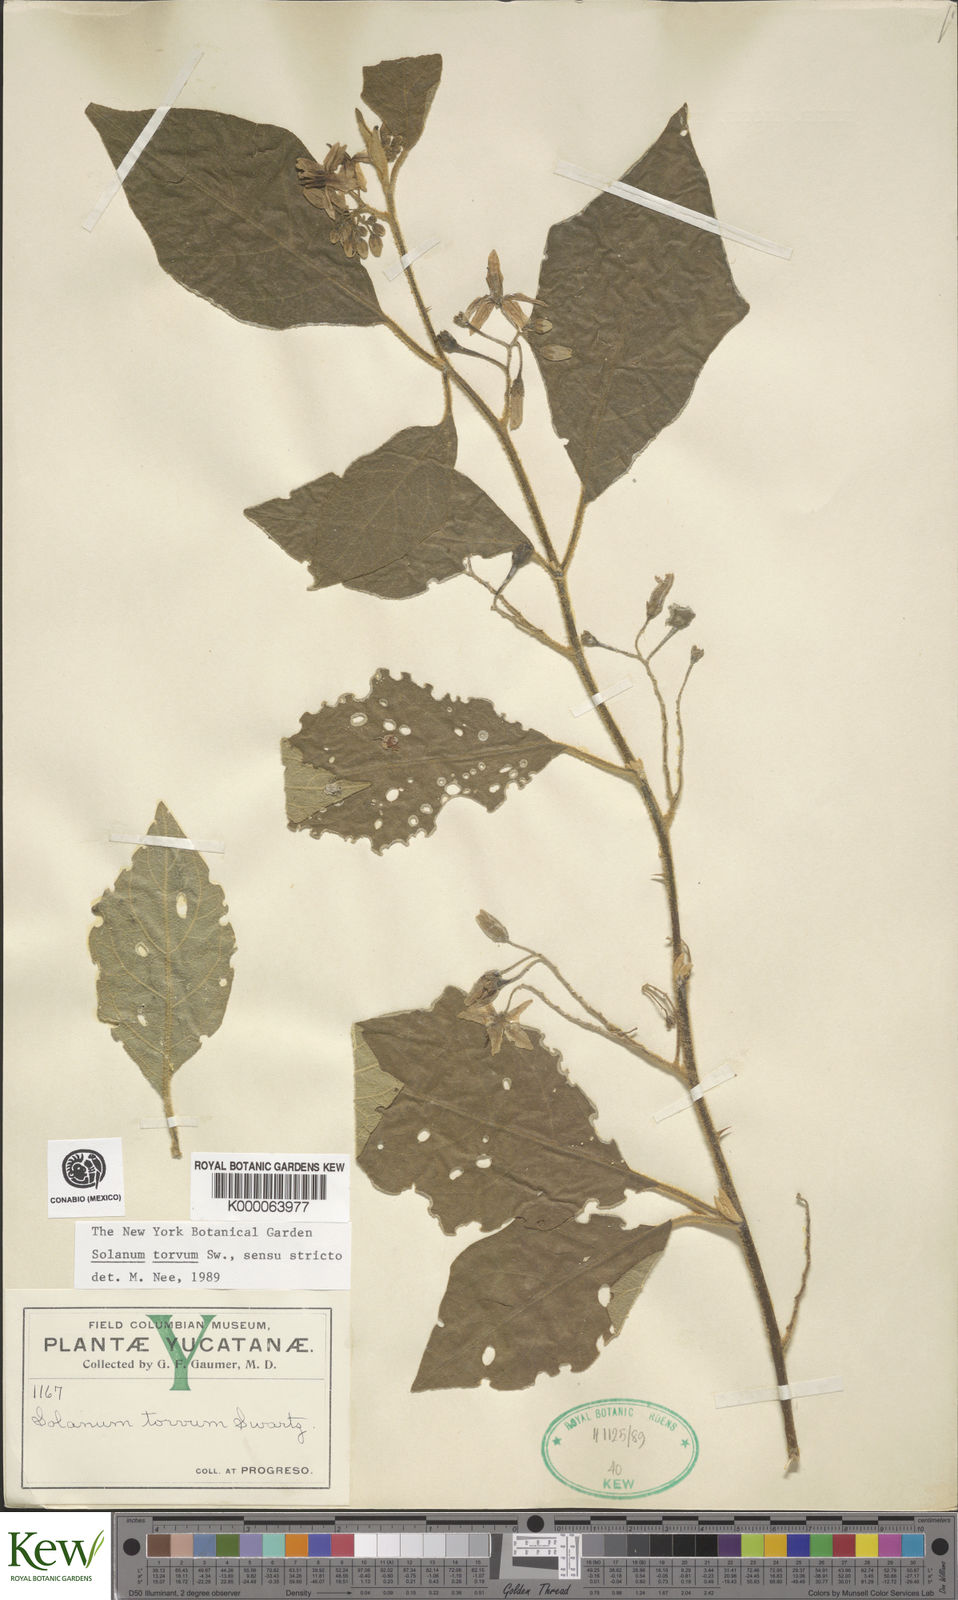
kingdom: Plantae
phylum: Tracheophyta
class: Magnoliopsida
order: Solanales
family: Solanaceae
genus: Solanum
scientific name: Solanum torvum
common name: Turkey berry
